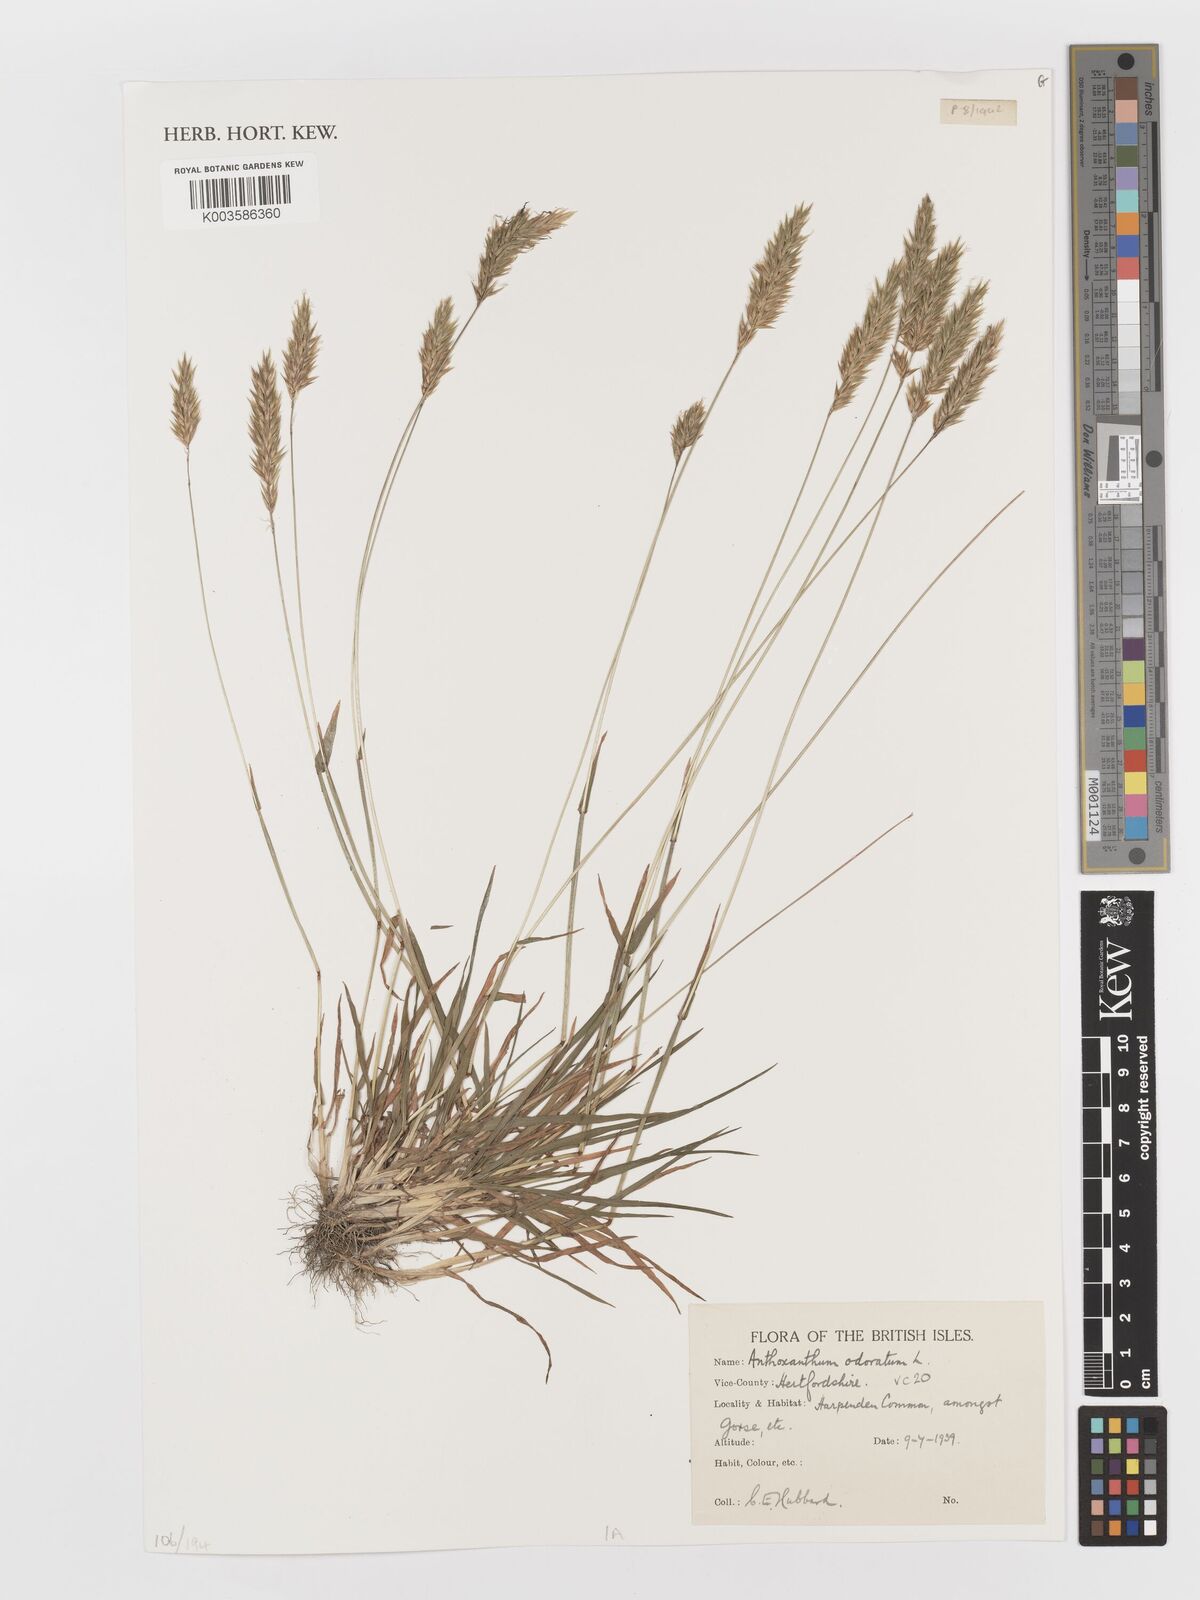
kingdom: Plantae
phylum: Tracheophyta
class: Liliopsida
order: Poales
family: Poaceae
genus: Anthoxanthum
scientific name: Anthoxanthum odoratum
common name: Sweet vernalgrass
